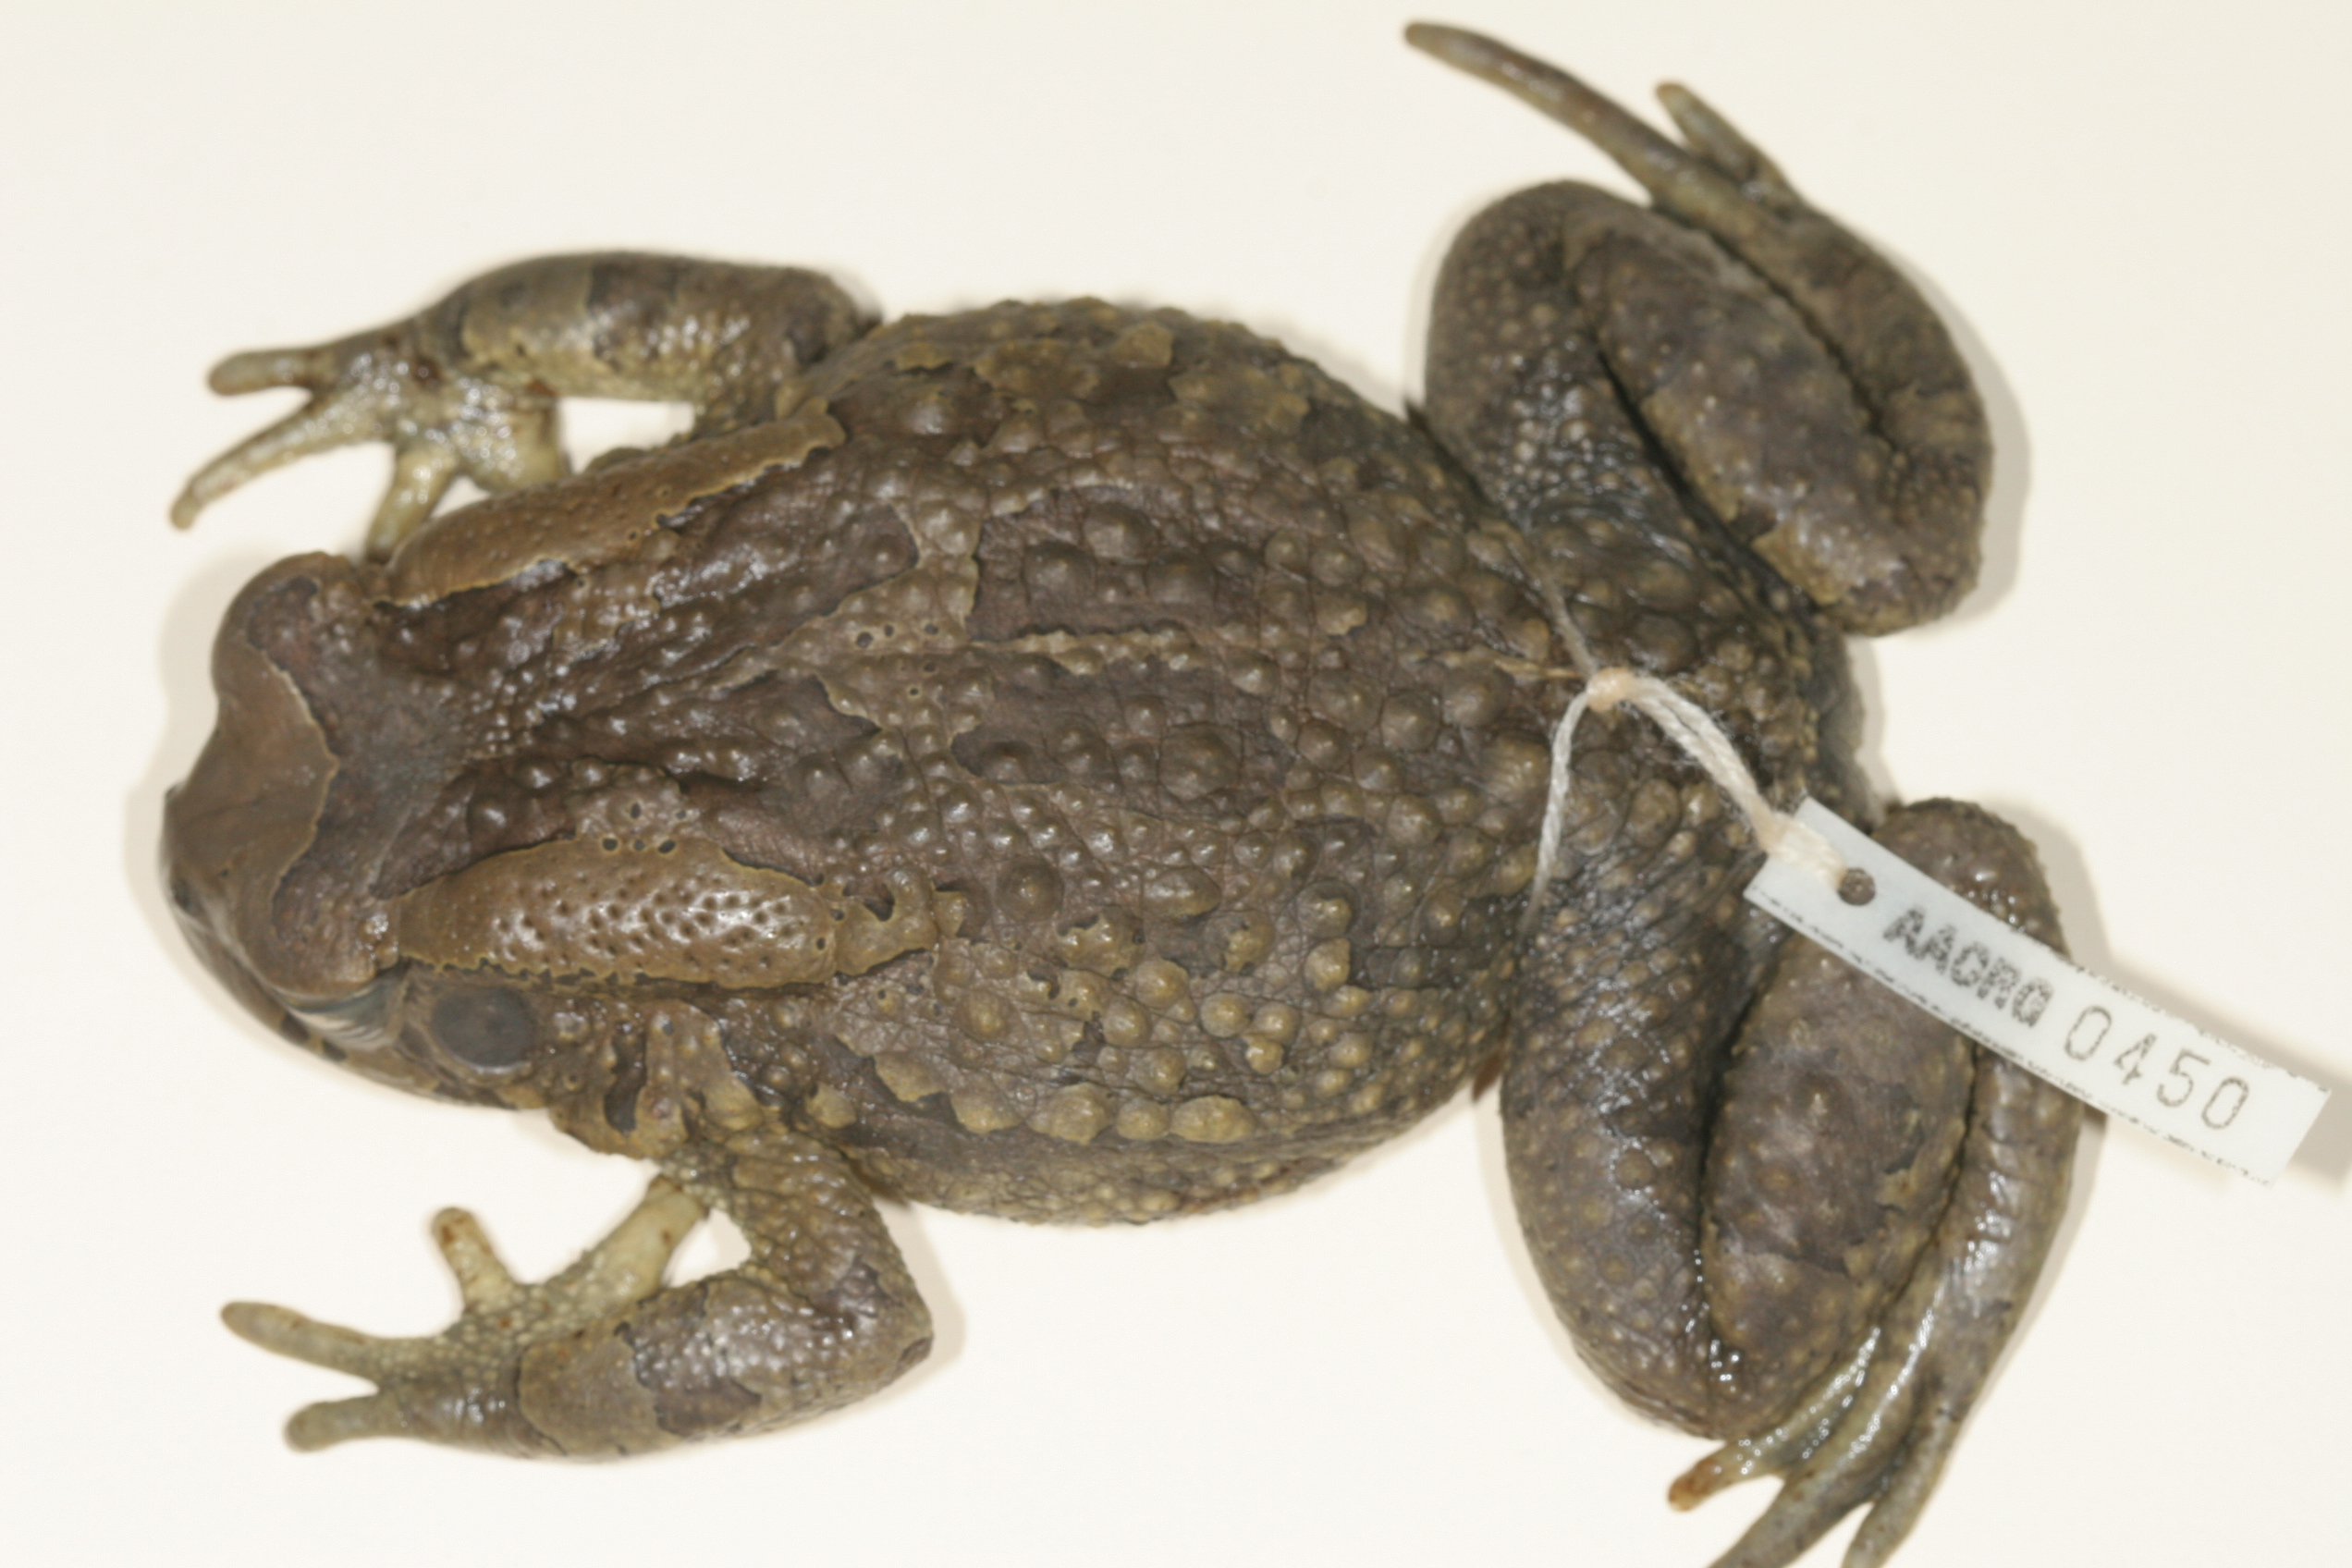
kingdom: Animalia
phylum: Chordata
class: Amphibia
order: Anura
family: Bufonidae
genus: Sclerophrys
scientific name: Sclerophrys capensis
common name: Ranger’s toad
